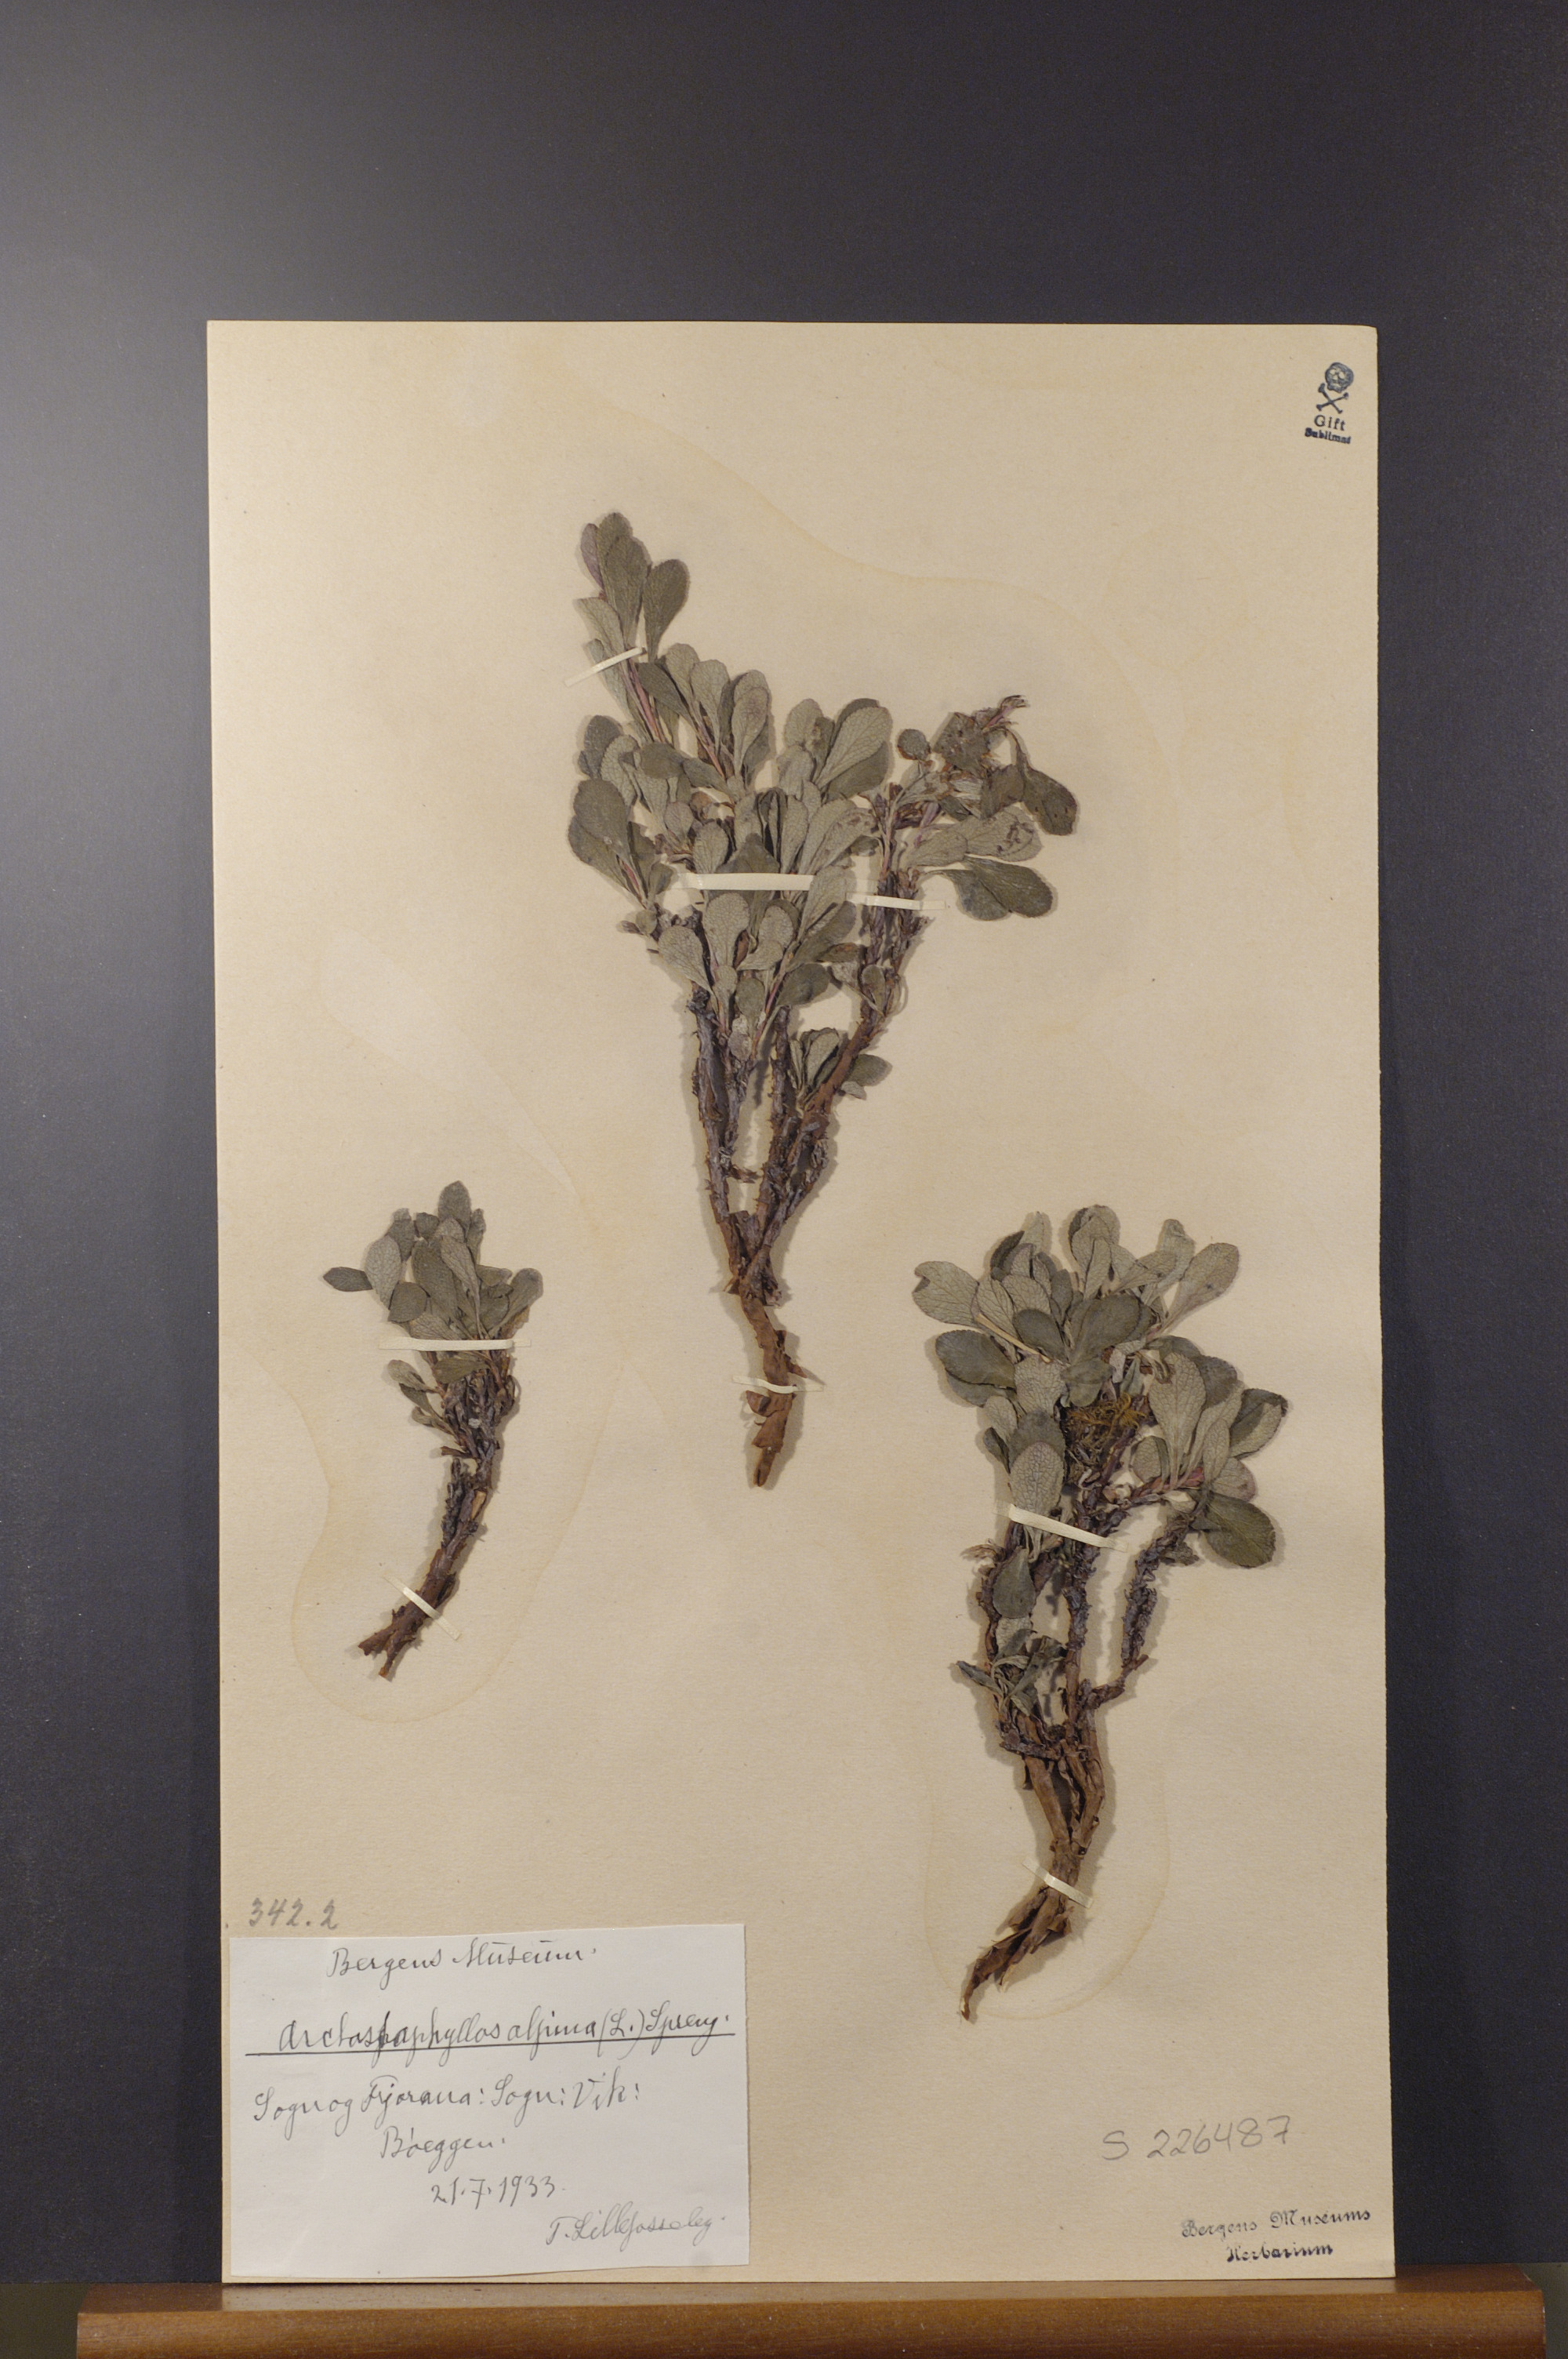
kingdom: Plantae
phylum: Tracheophyta
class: Magnoliopsida
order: Ericales
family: Ericaceae
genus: Arctostaphylos
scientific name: Arctostaphylos alpinus
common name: Alpine bearberry
